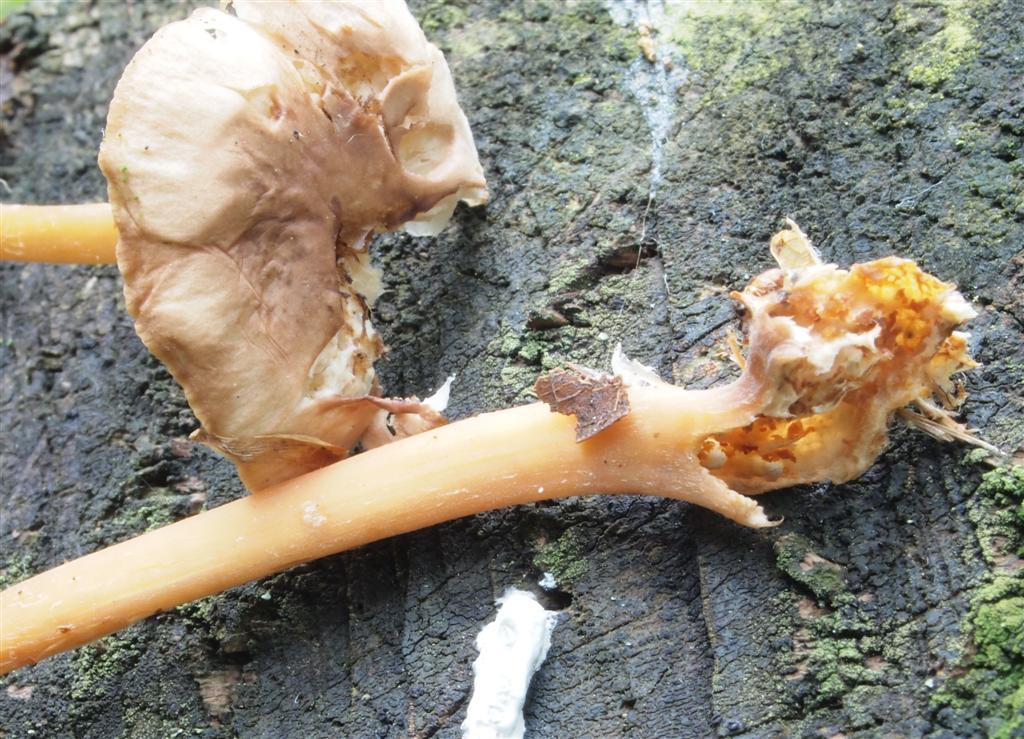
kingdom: Fungi
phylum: Basidiomycota
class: Agaricomycetes
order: Agaricales
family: Omphalotaceae
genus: Gymnopus
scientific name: Gymnopus ocior
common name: mørk fladhat
